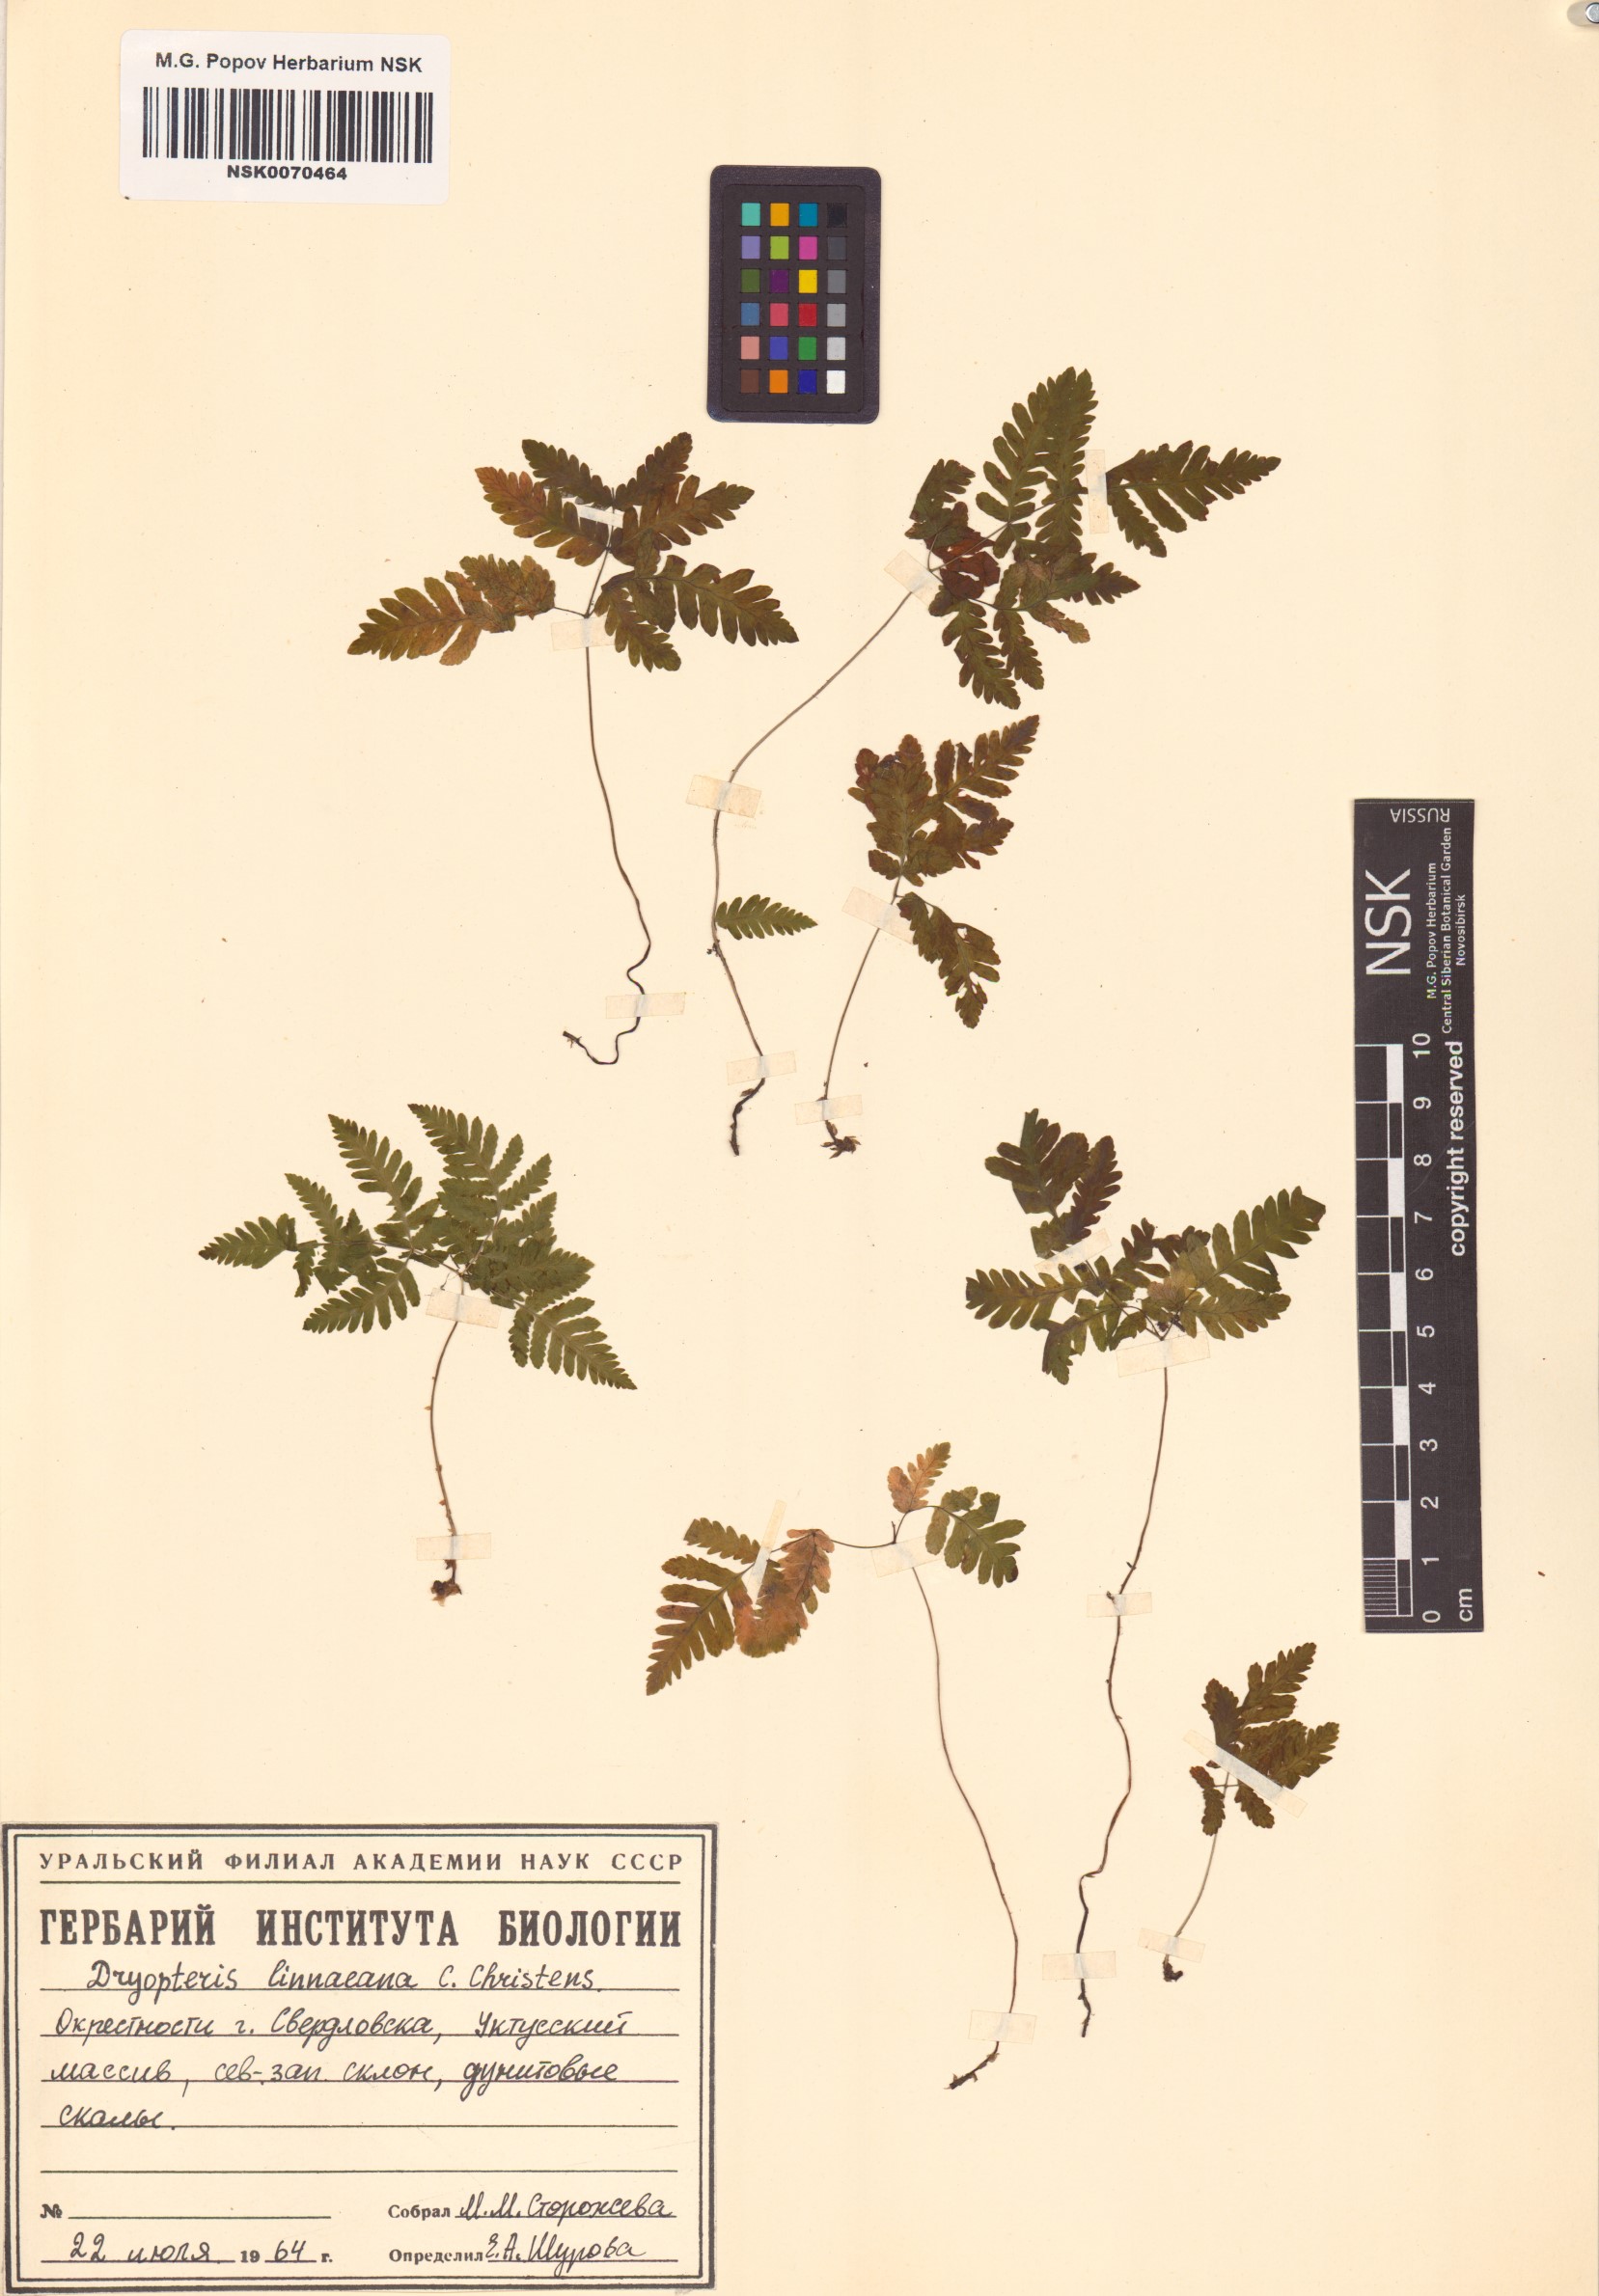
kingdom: Plantae
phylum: Tracheophyta
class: Polypodiopsida
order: Polypodiales
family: Cystopteridaceae
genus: Gymnocarpium
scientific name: Gymnocarpium dryopteris
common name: Oak fern
